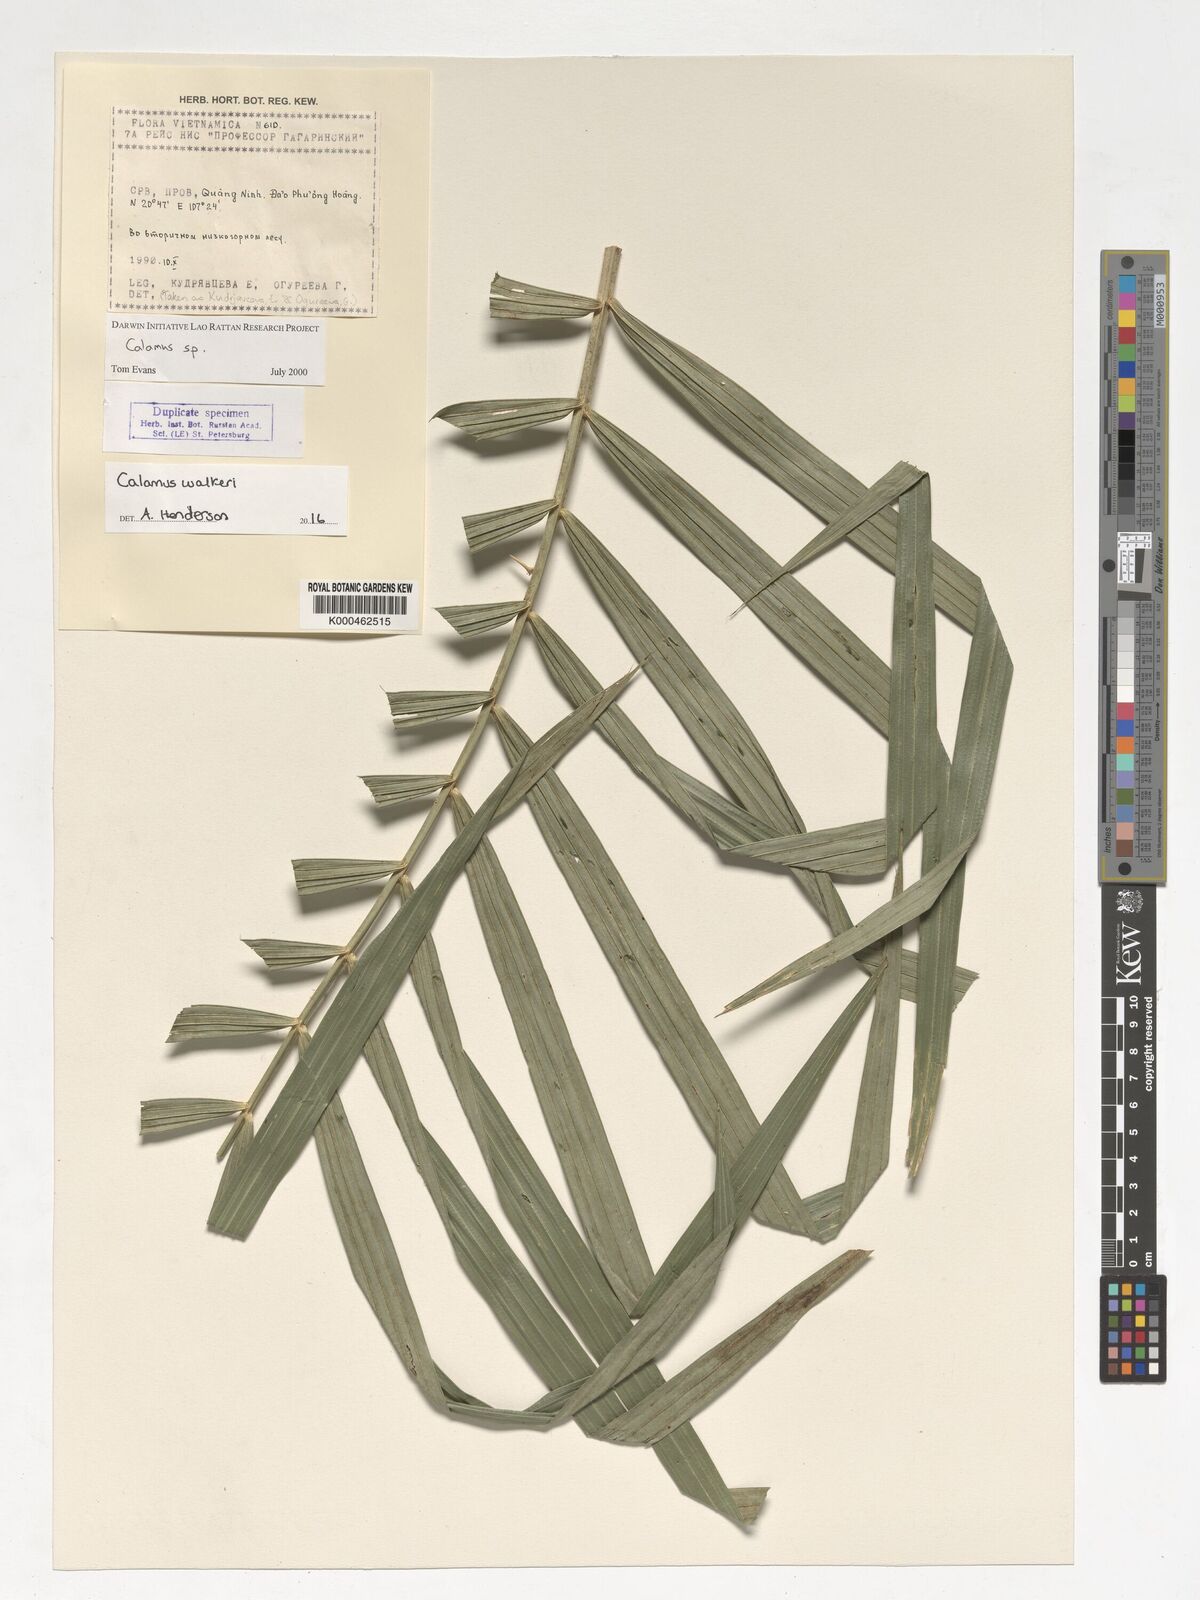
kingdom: Plantae
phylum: Tracheophyta
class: Liliopsida
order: Arecales
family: Arecaceae
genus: Calamus
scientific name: Calamus walkeri
